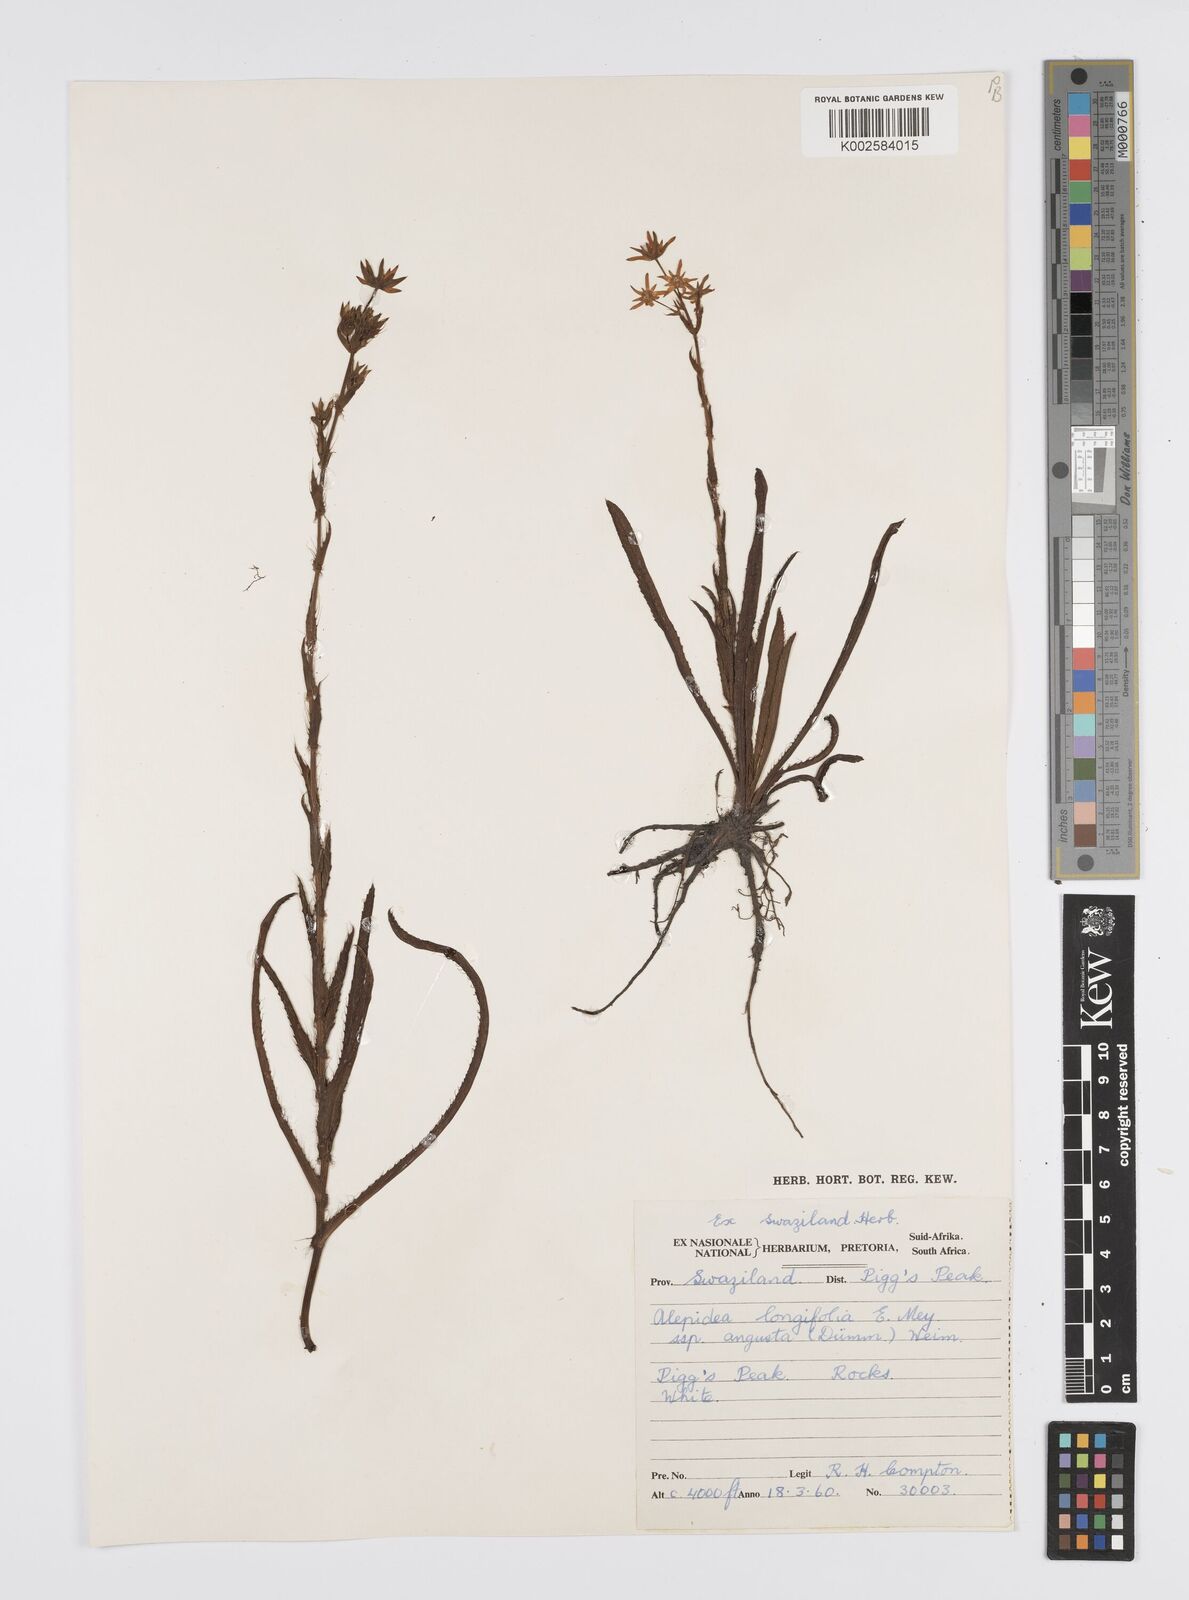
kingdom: Plantae
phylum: Tracheophyta
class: Magnoliopsida
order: Apiales
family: Apiaceae
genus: Alepidea
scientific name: Alepidea
